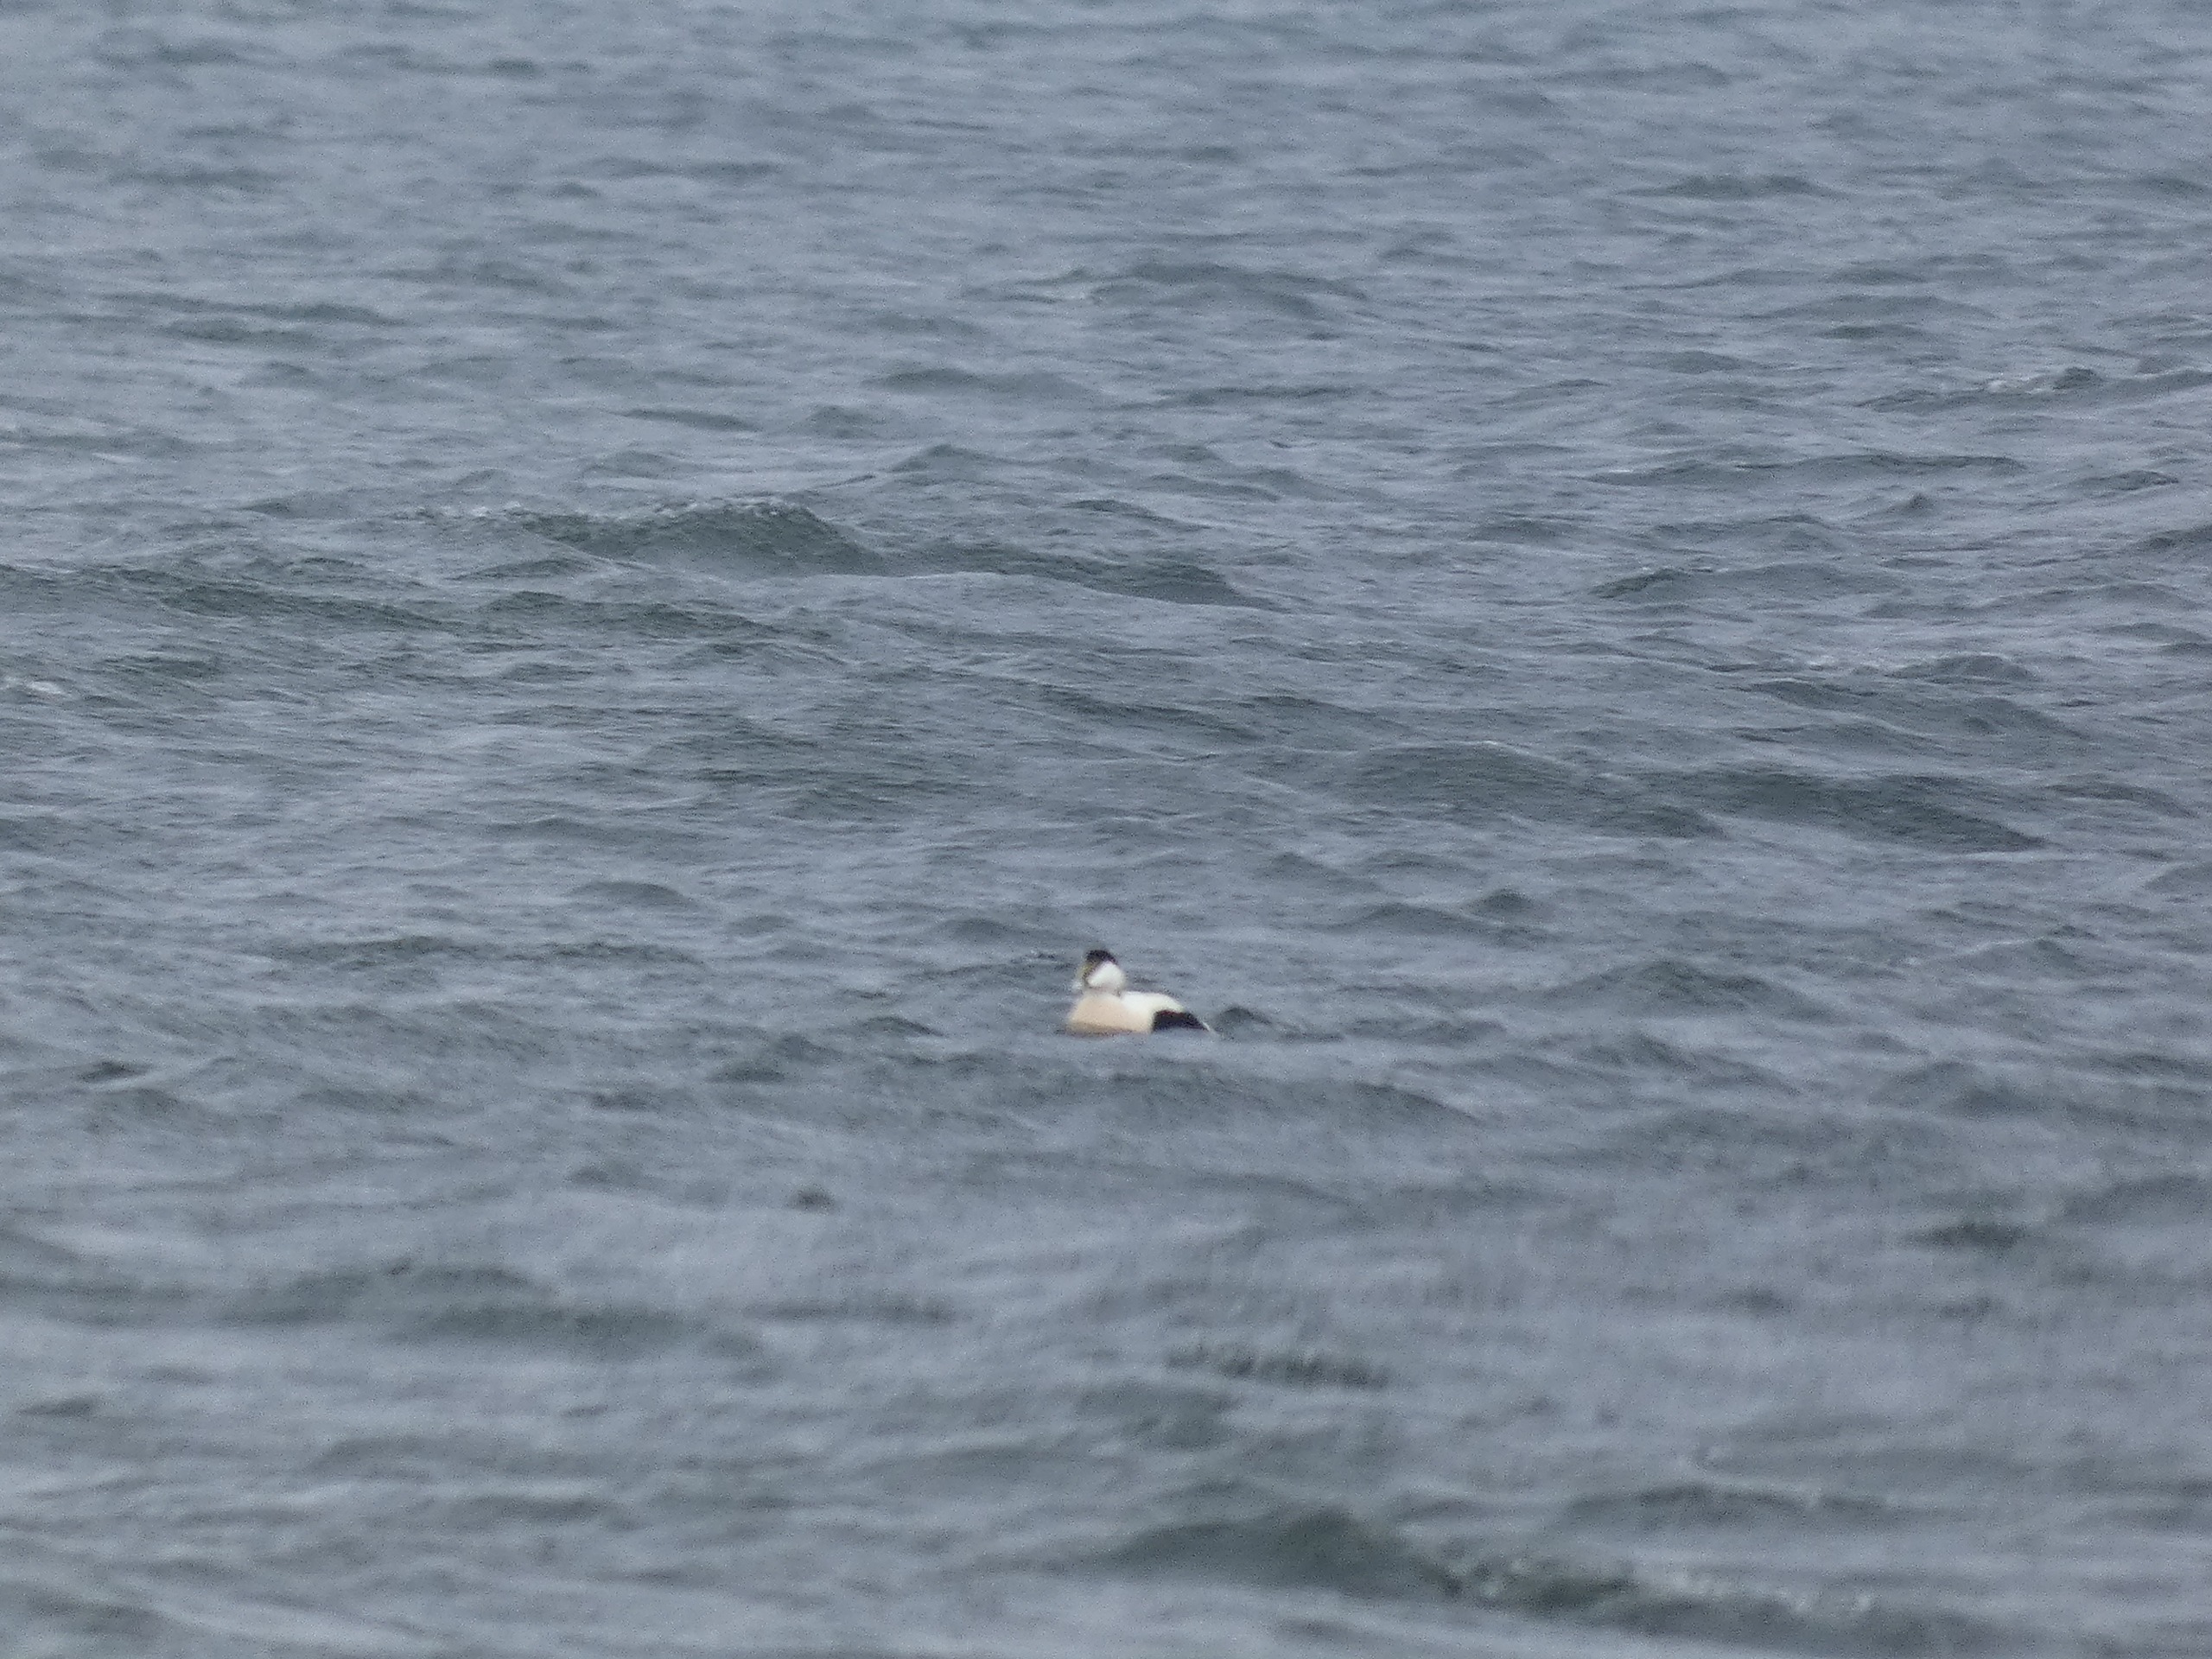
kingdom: Animalia
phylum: Chordata
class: Aves
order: Anseriformes
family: Anatidae
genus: Somateria
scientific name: Somateria mollissima
